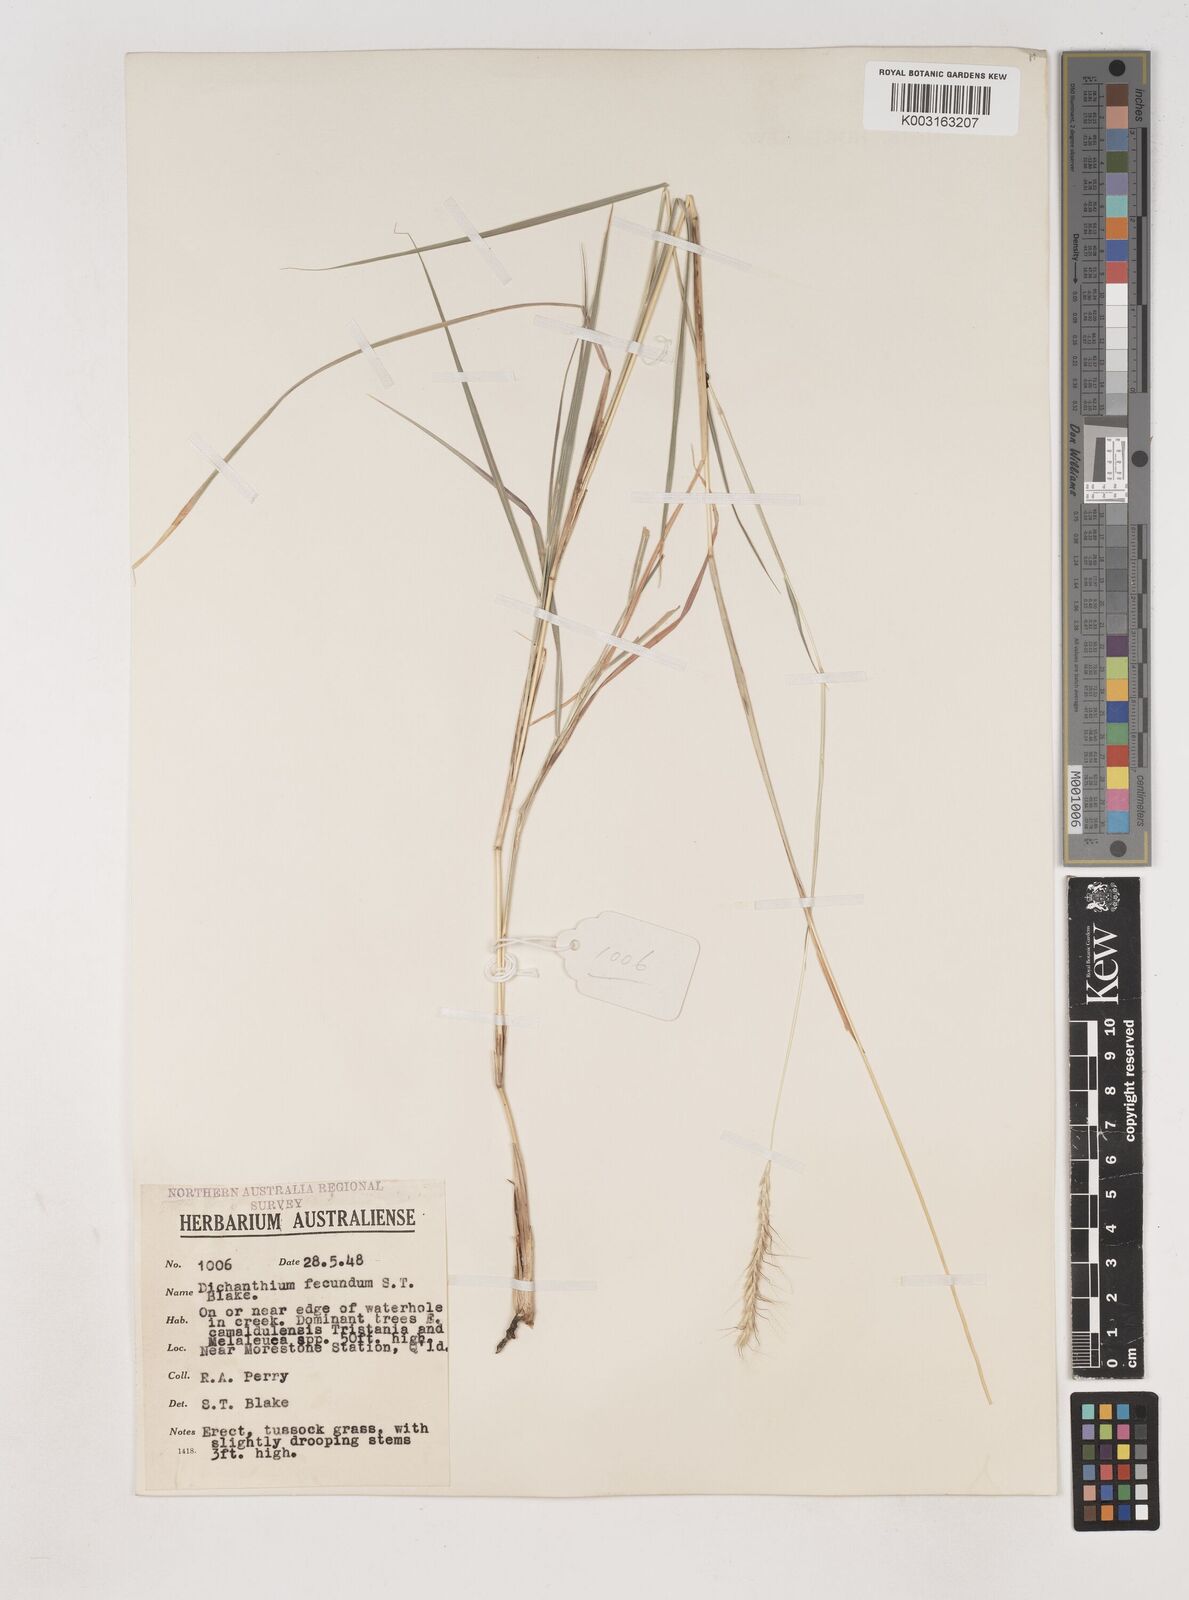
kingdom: Plantae
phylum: Tracheophyta
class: Liliopsida
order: Poales
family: Poaceae
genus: Dichanthium
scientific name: Dichanthium fecundum
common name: Bundle-bundle
